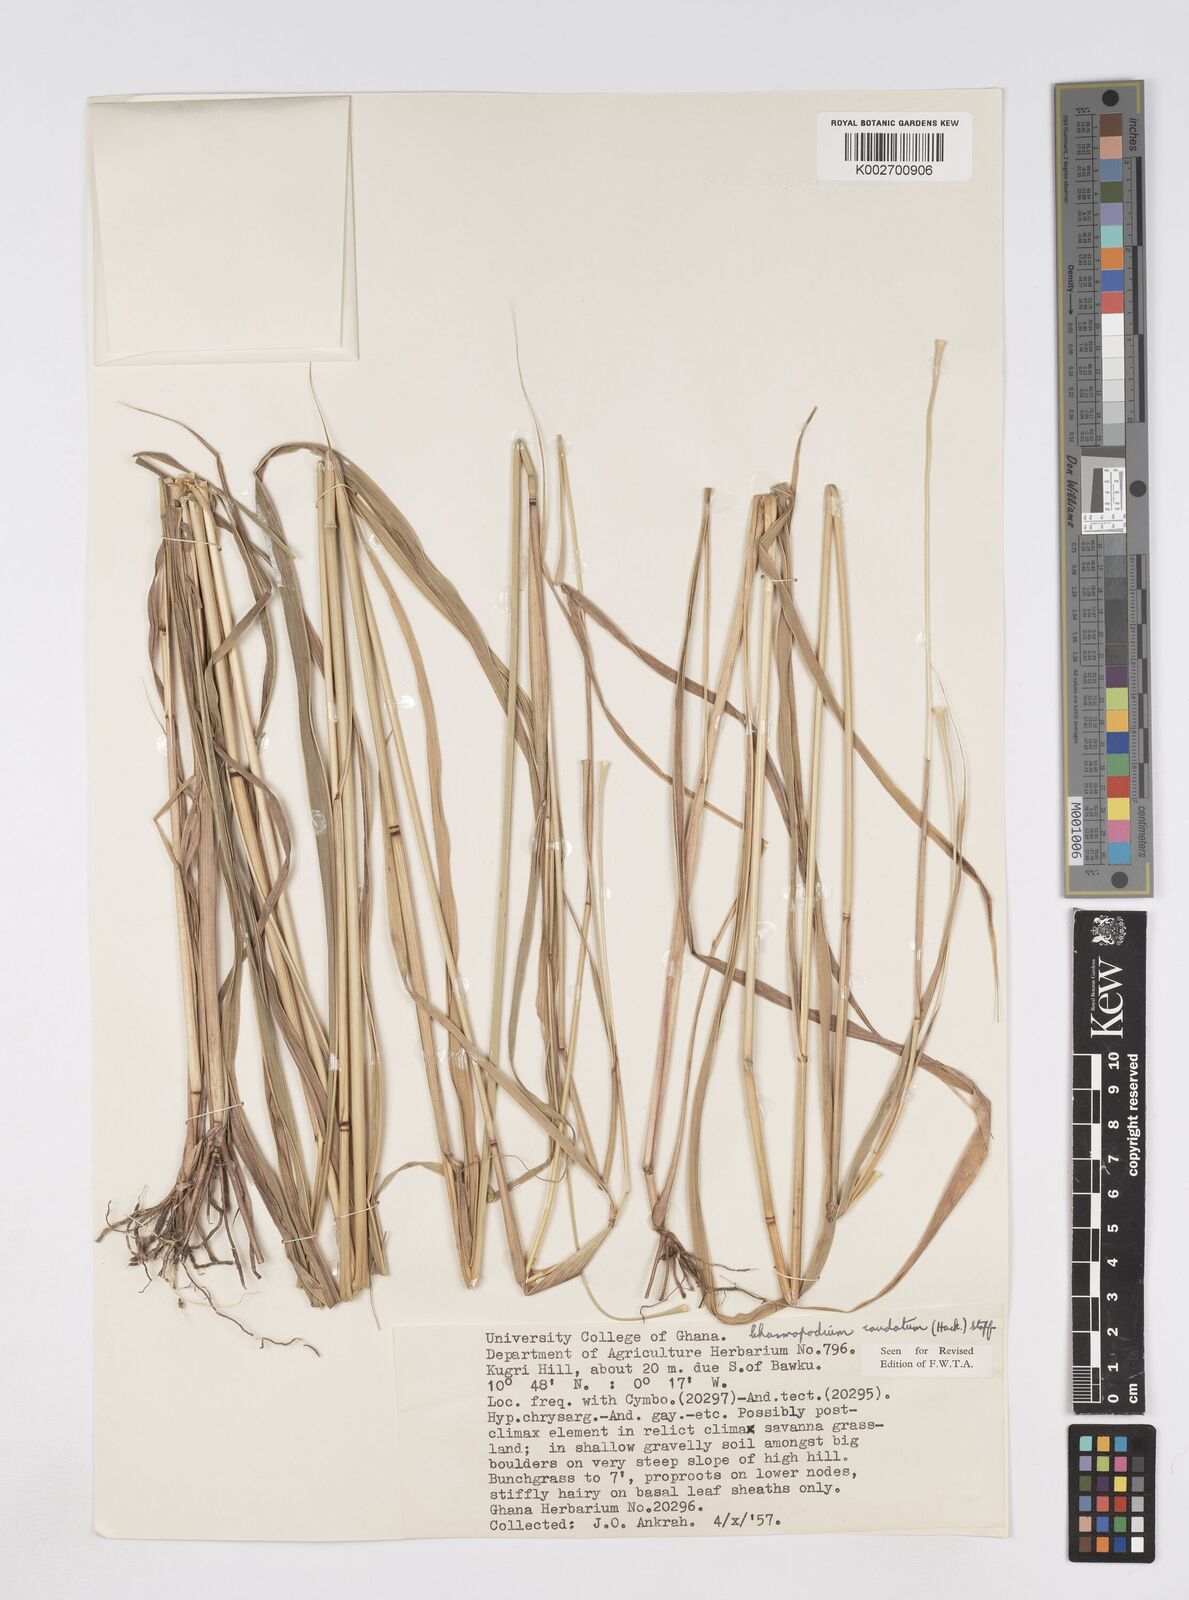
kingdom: Plantae
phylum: Tracheophyta
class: Liliopsida
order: Poales
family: Poaceae
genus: Chasmopodium
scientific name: Chasmopodium afzelii
